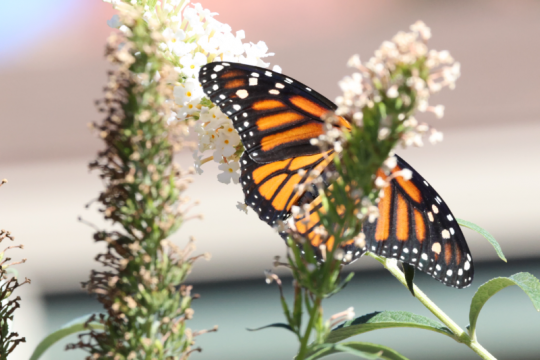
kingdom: Animalia
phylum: Arthropoda
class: Insecta
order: Lepidoptera
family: Nymphalidae
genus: Danaus
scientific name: Danaus plexippus
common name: Monarch
